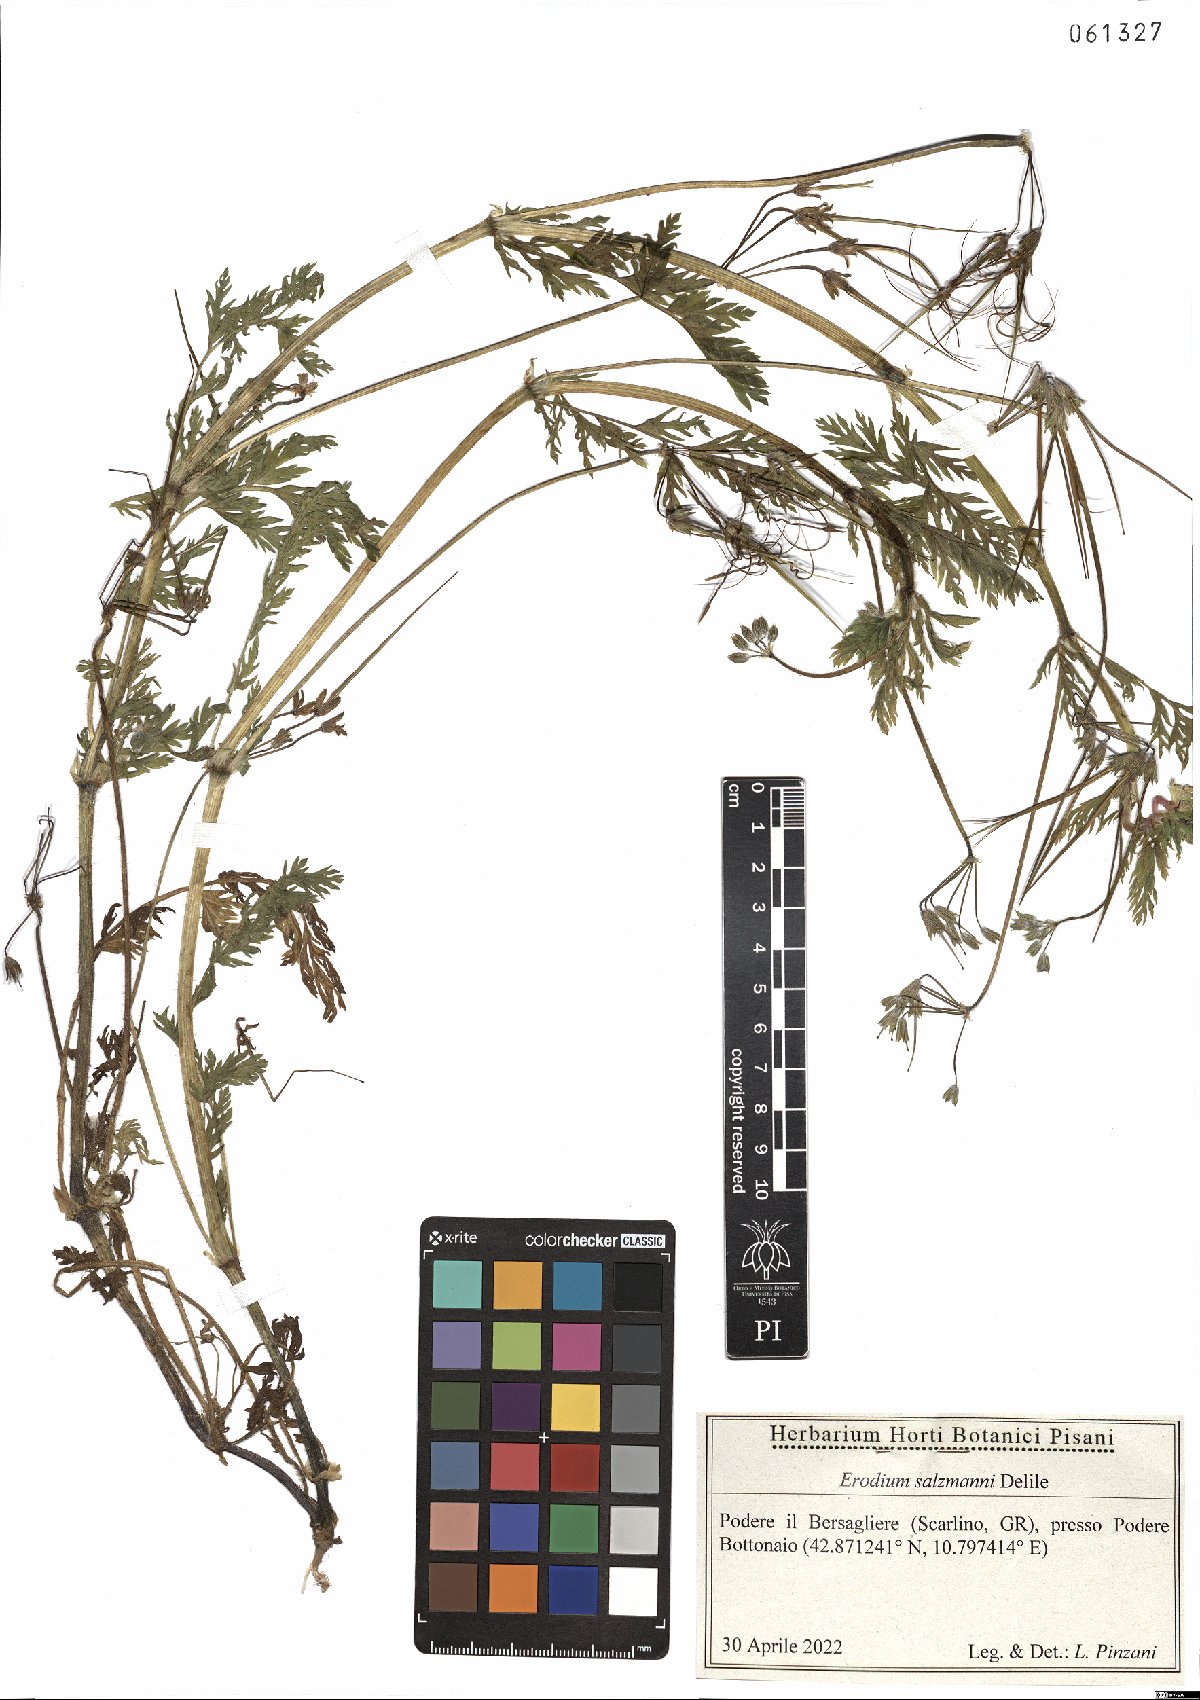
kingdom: Plantae
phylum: Tracheophyta
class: Magnoliopsida
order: Geraniales
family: Geraniaceae
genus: Erodium
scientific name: Erodium salzmannii
